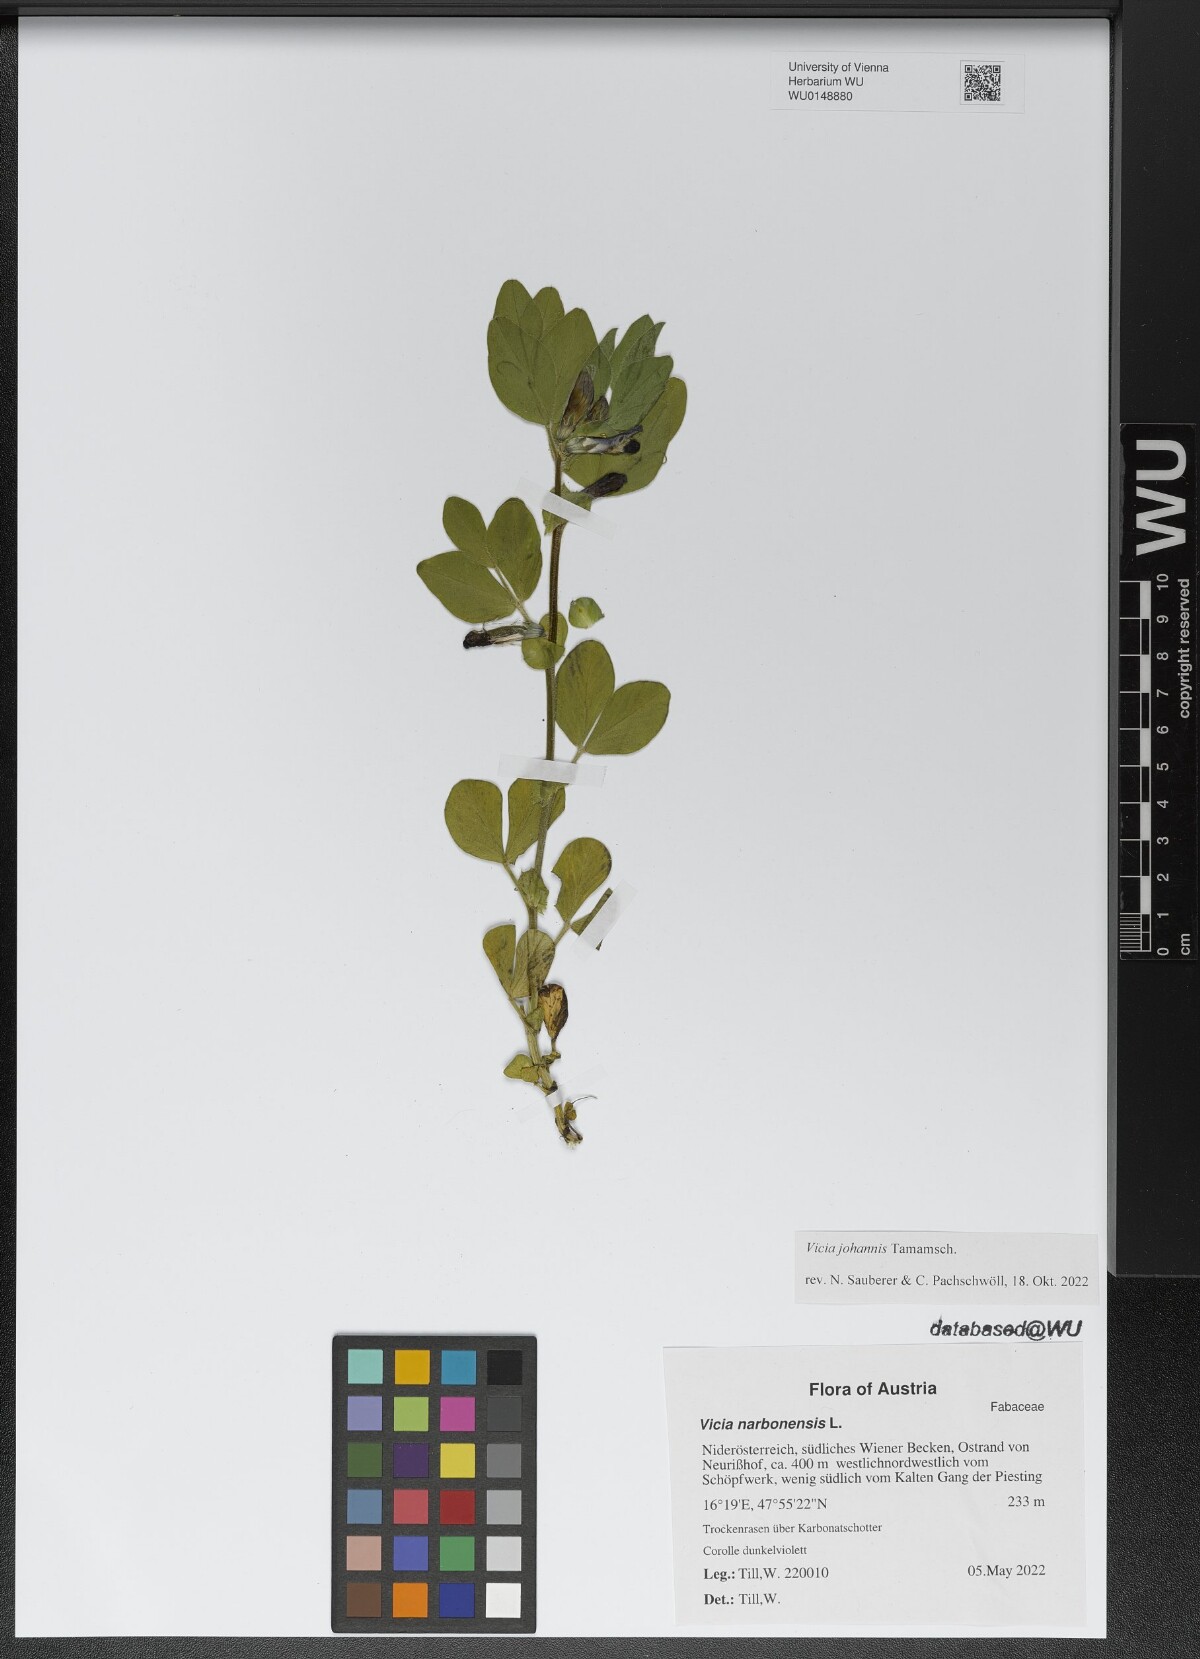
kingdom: Plantae
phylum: Tracheophyta
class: Magnoliopsida
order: Fabales
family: Fabaceae
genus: Vicia
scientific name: Vicia johannis
